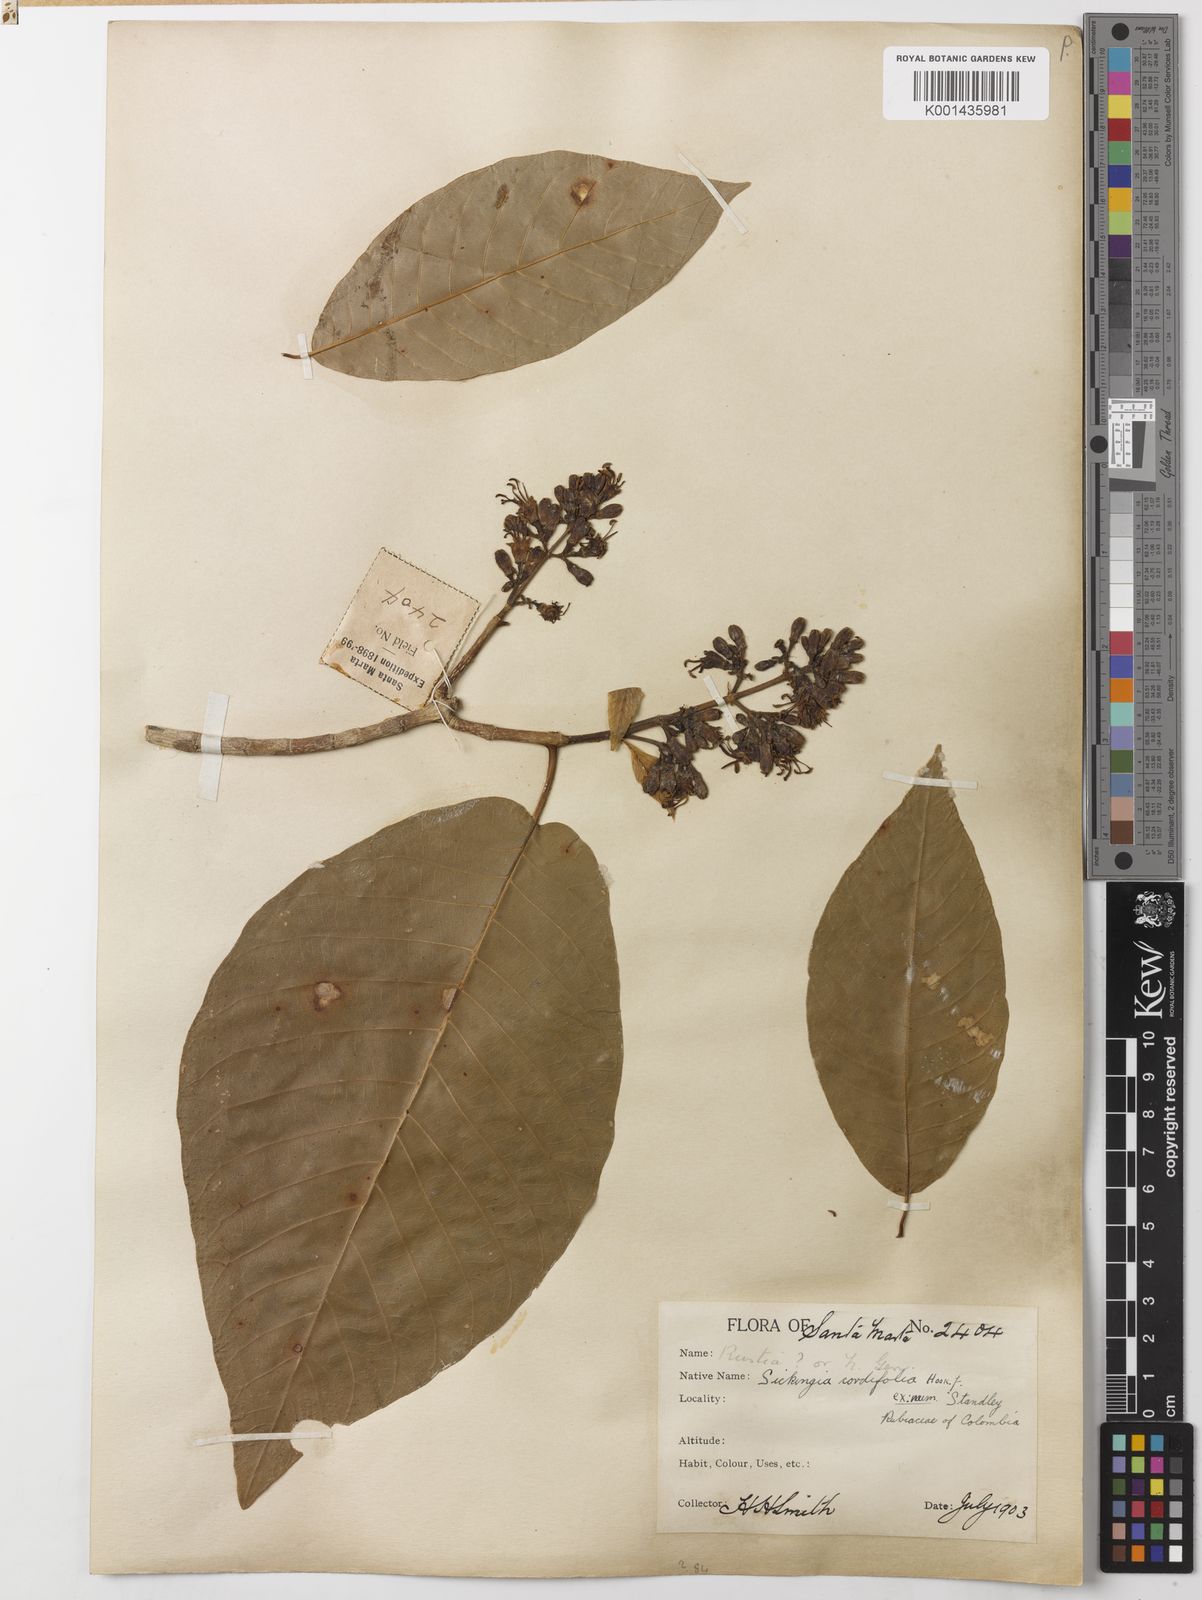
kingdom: Plantae
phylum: Tracheophyta
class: Magnoliopsida
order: Gentianales
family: Rubiaceae
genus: Simira
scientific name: Simira cordifolia
